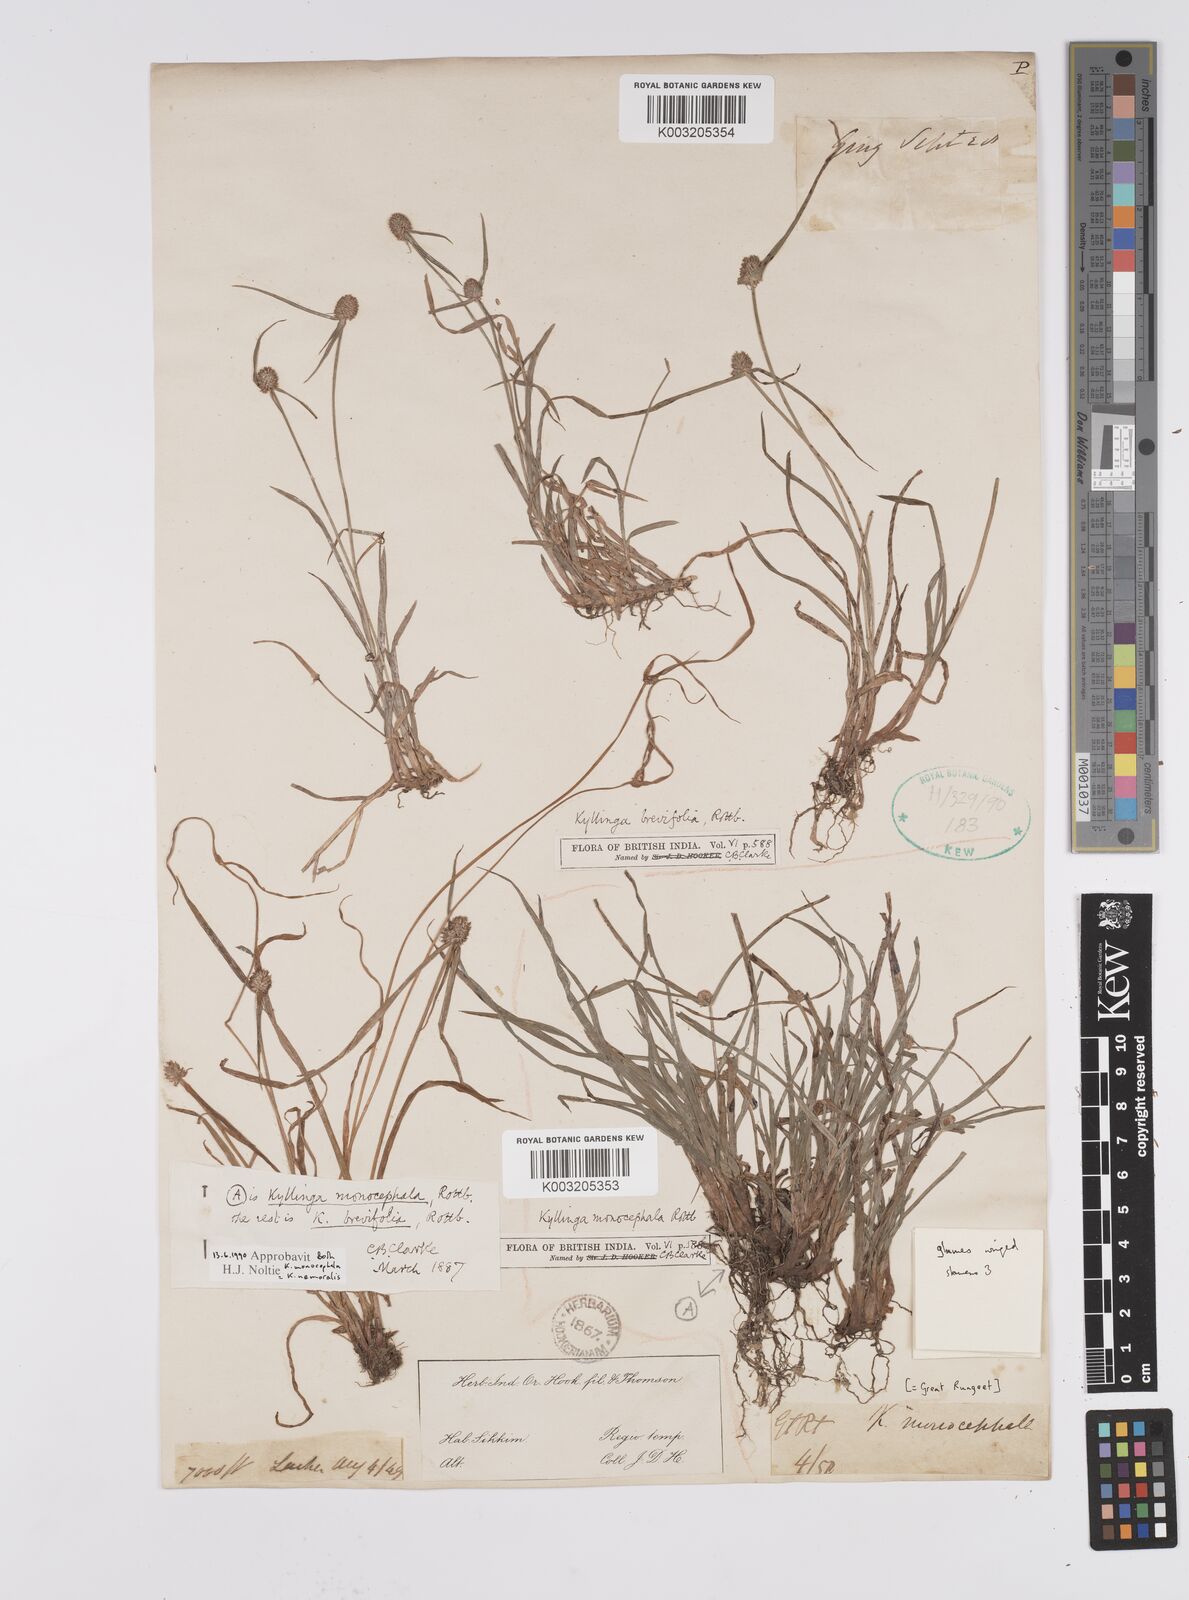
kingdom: Plantae
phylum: Tracheophyta
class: Liliopsida
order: Poales
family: Cyperaceae
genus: Cyperus
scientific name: Cyperus brevifolius
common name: Globe kyllinga
